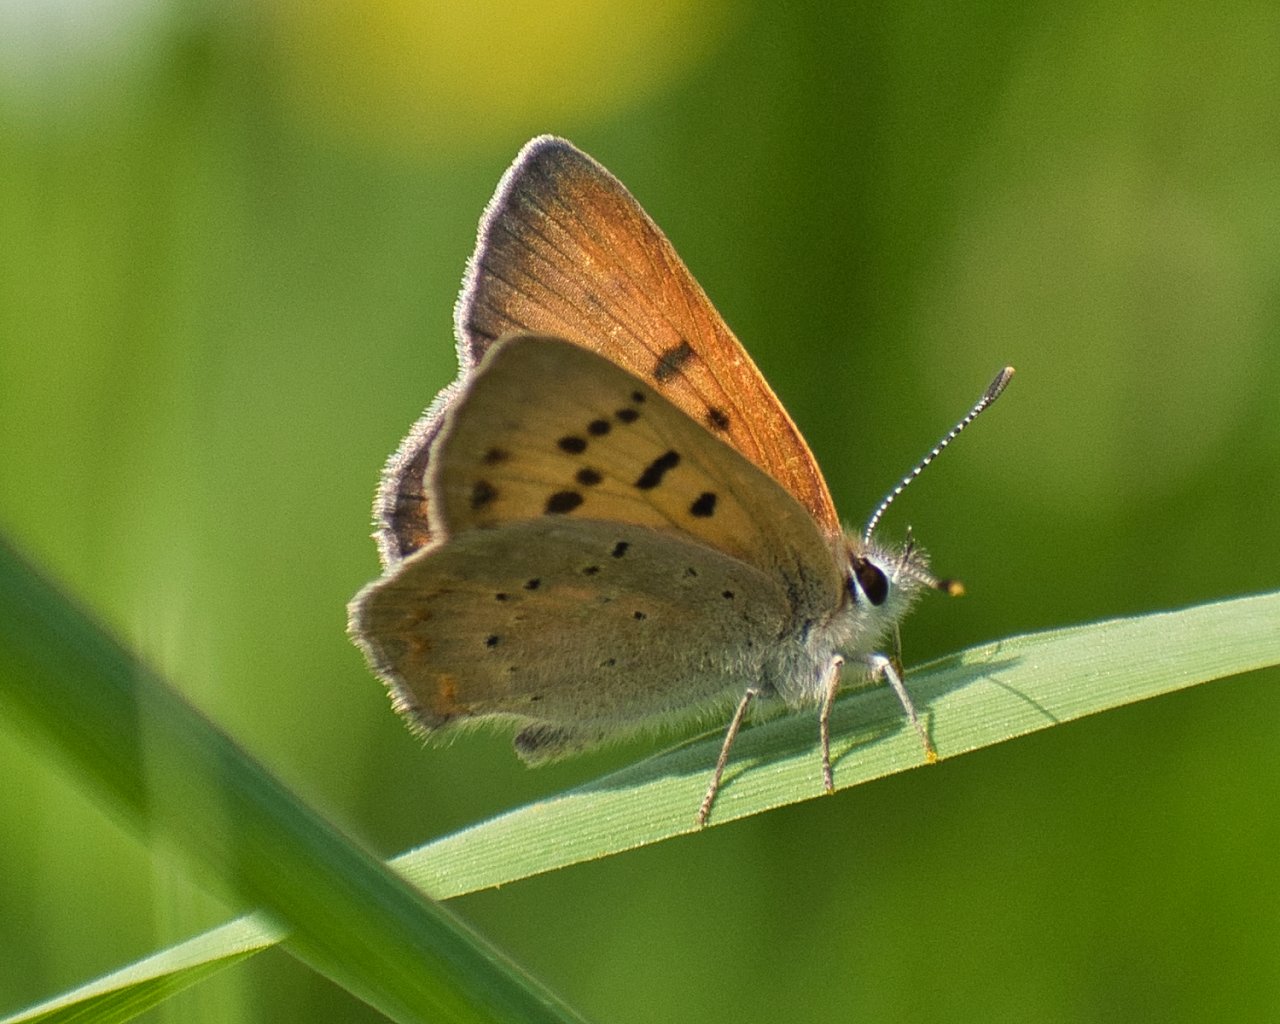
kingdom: Animalia
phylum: Arthropoda
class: Insecta
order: Lepidoptera
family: Sesiidae
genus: Sesia
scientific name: Sesia Lycaena helloides
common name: Purplish Copper
